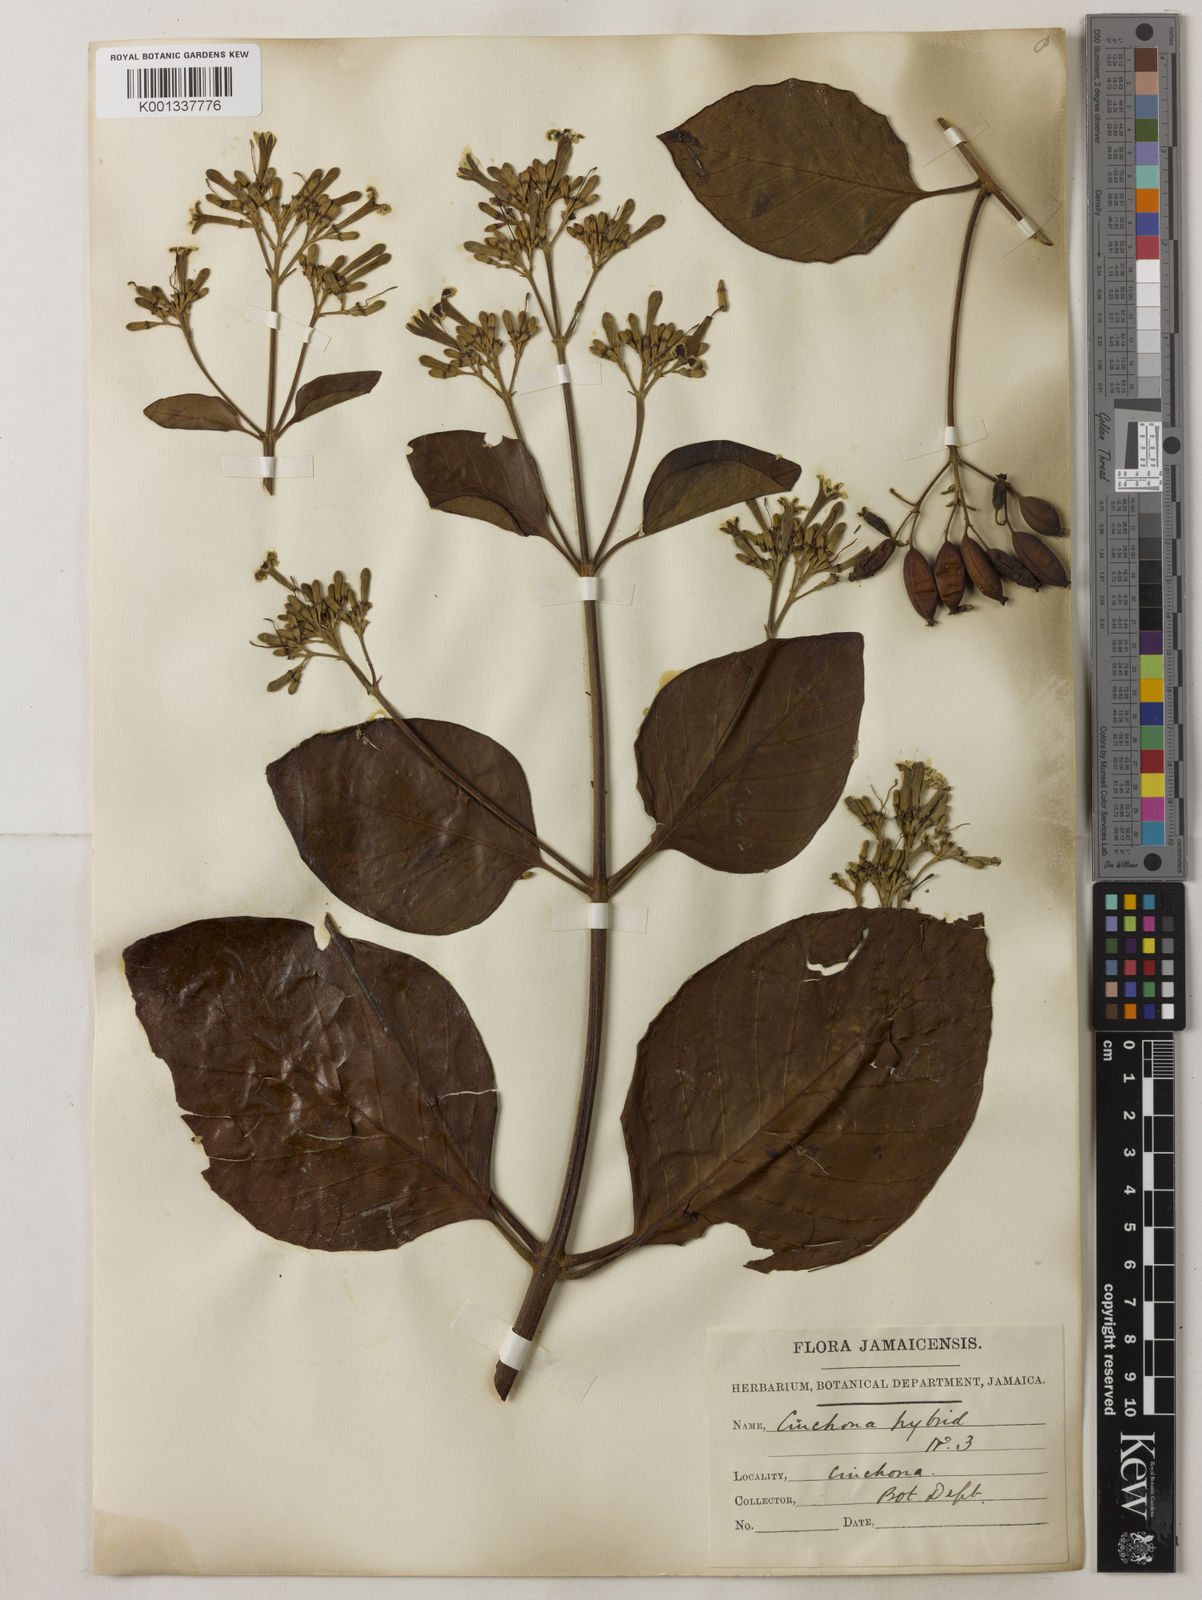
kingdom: Plantae
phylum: Tracheophyta
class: Magnoliopsida
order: Gentianales
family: Rubiaceae
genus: Cinchona
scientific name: Cinchona
